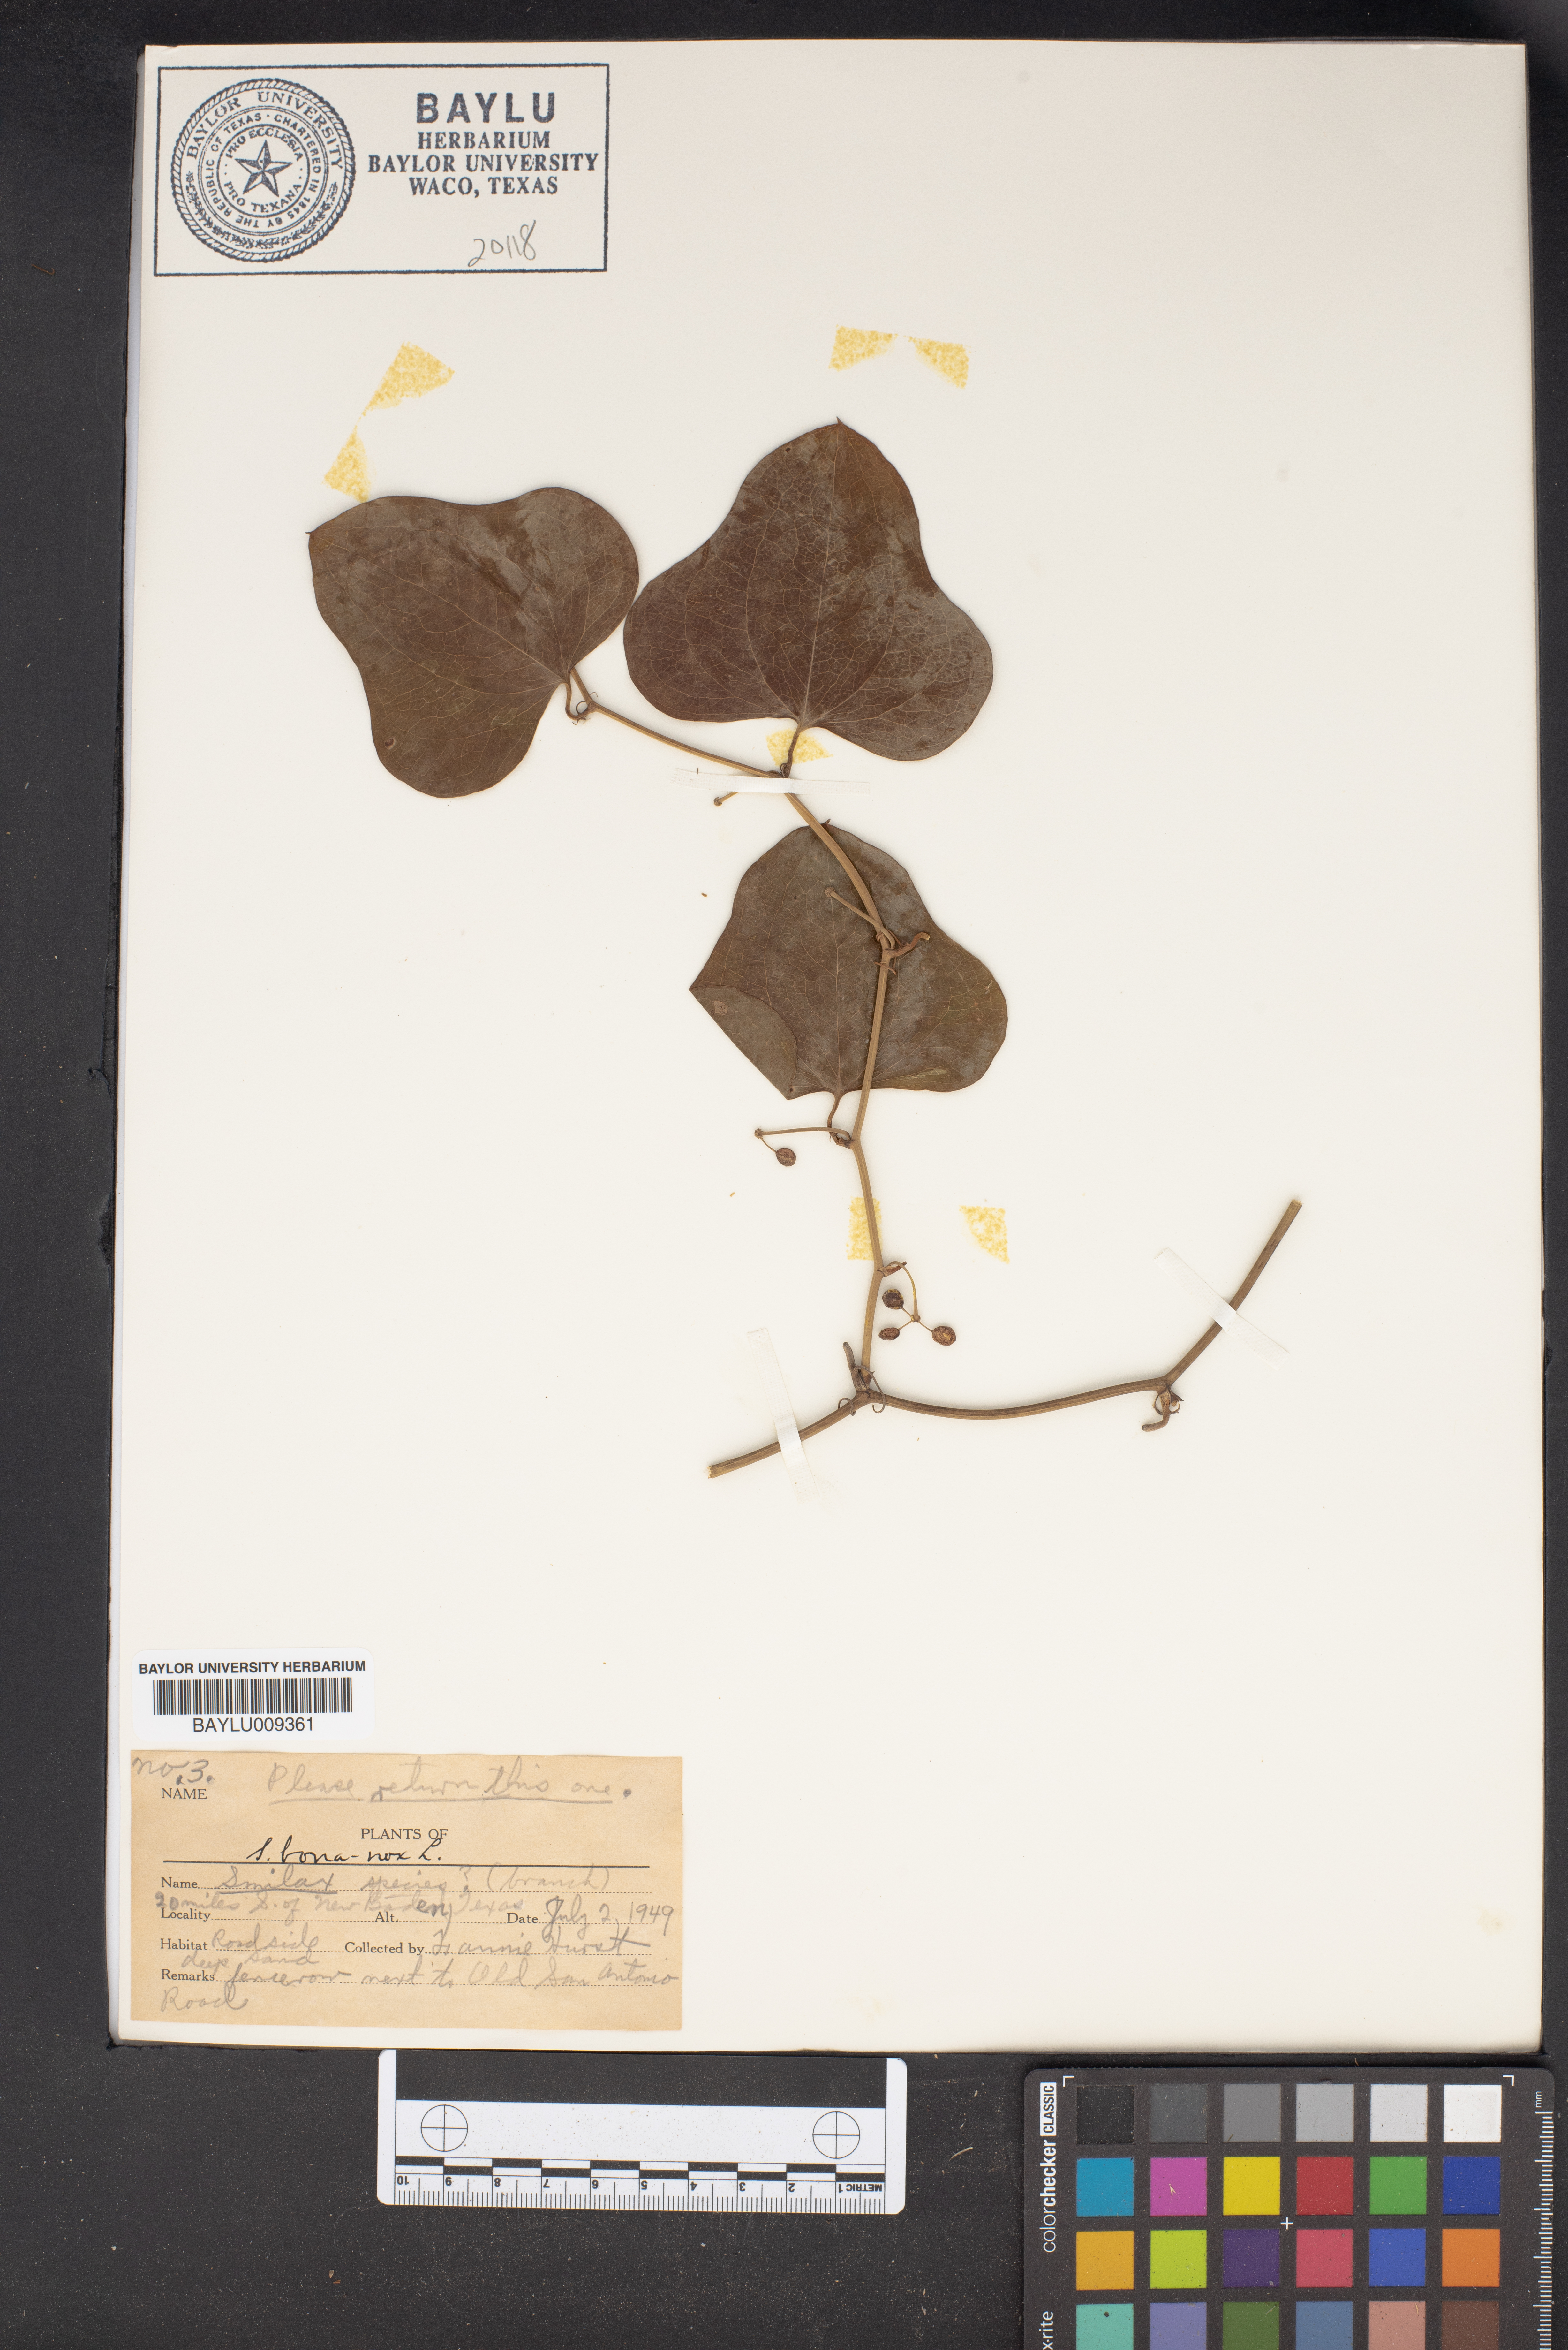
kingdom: Plantae
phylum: Tracheophyta
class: Liliopsida
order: Liliales
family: Smilacaceae
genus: Smilax
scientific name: Smilax
